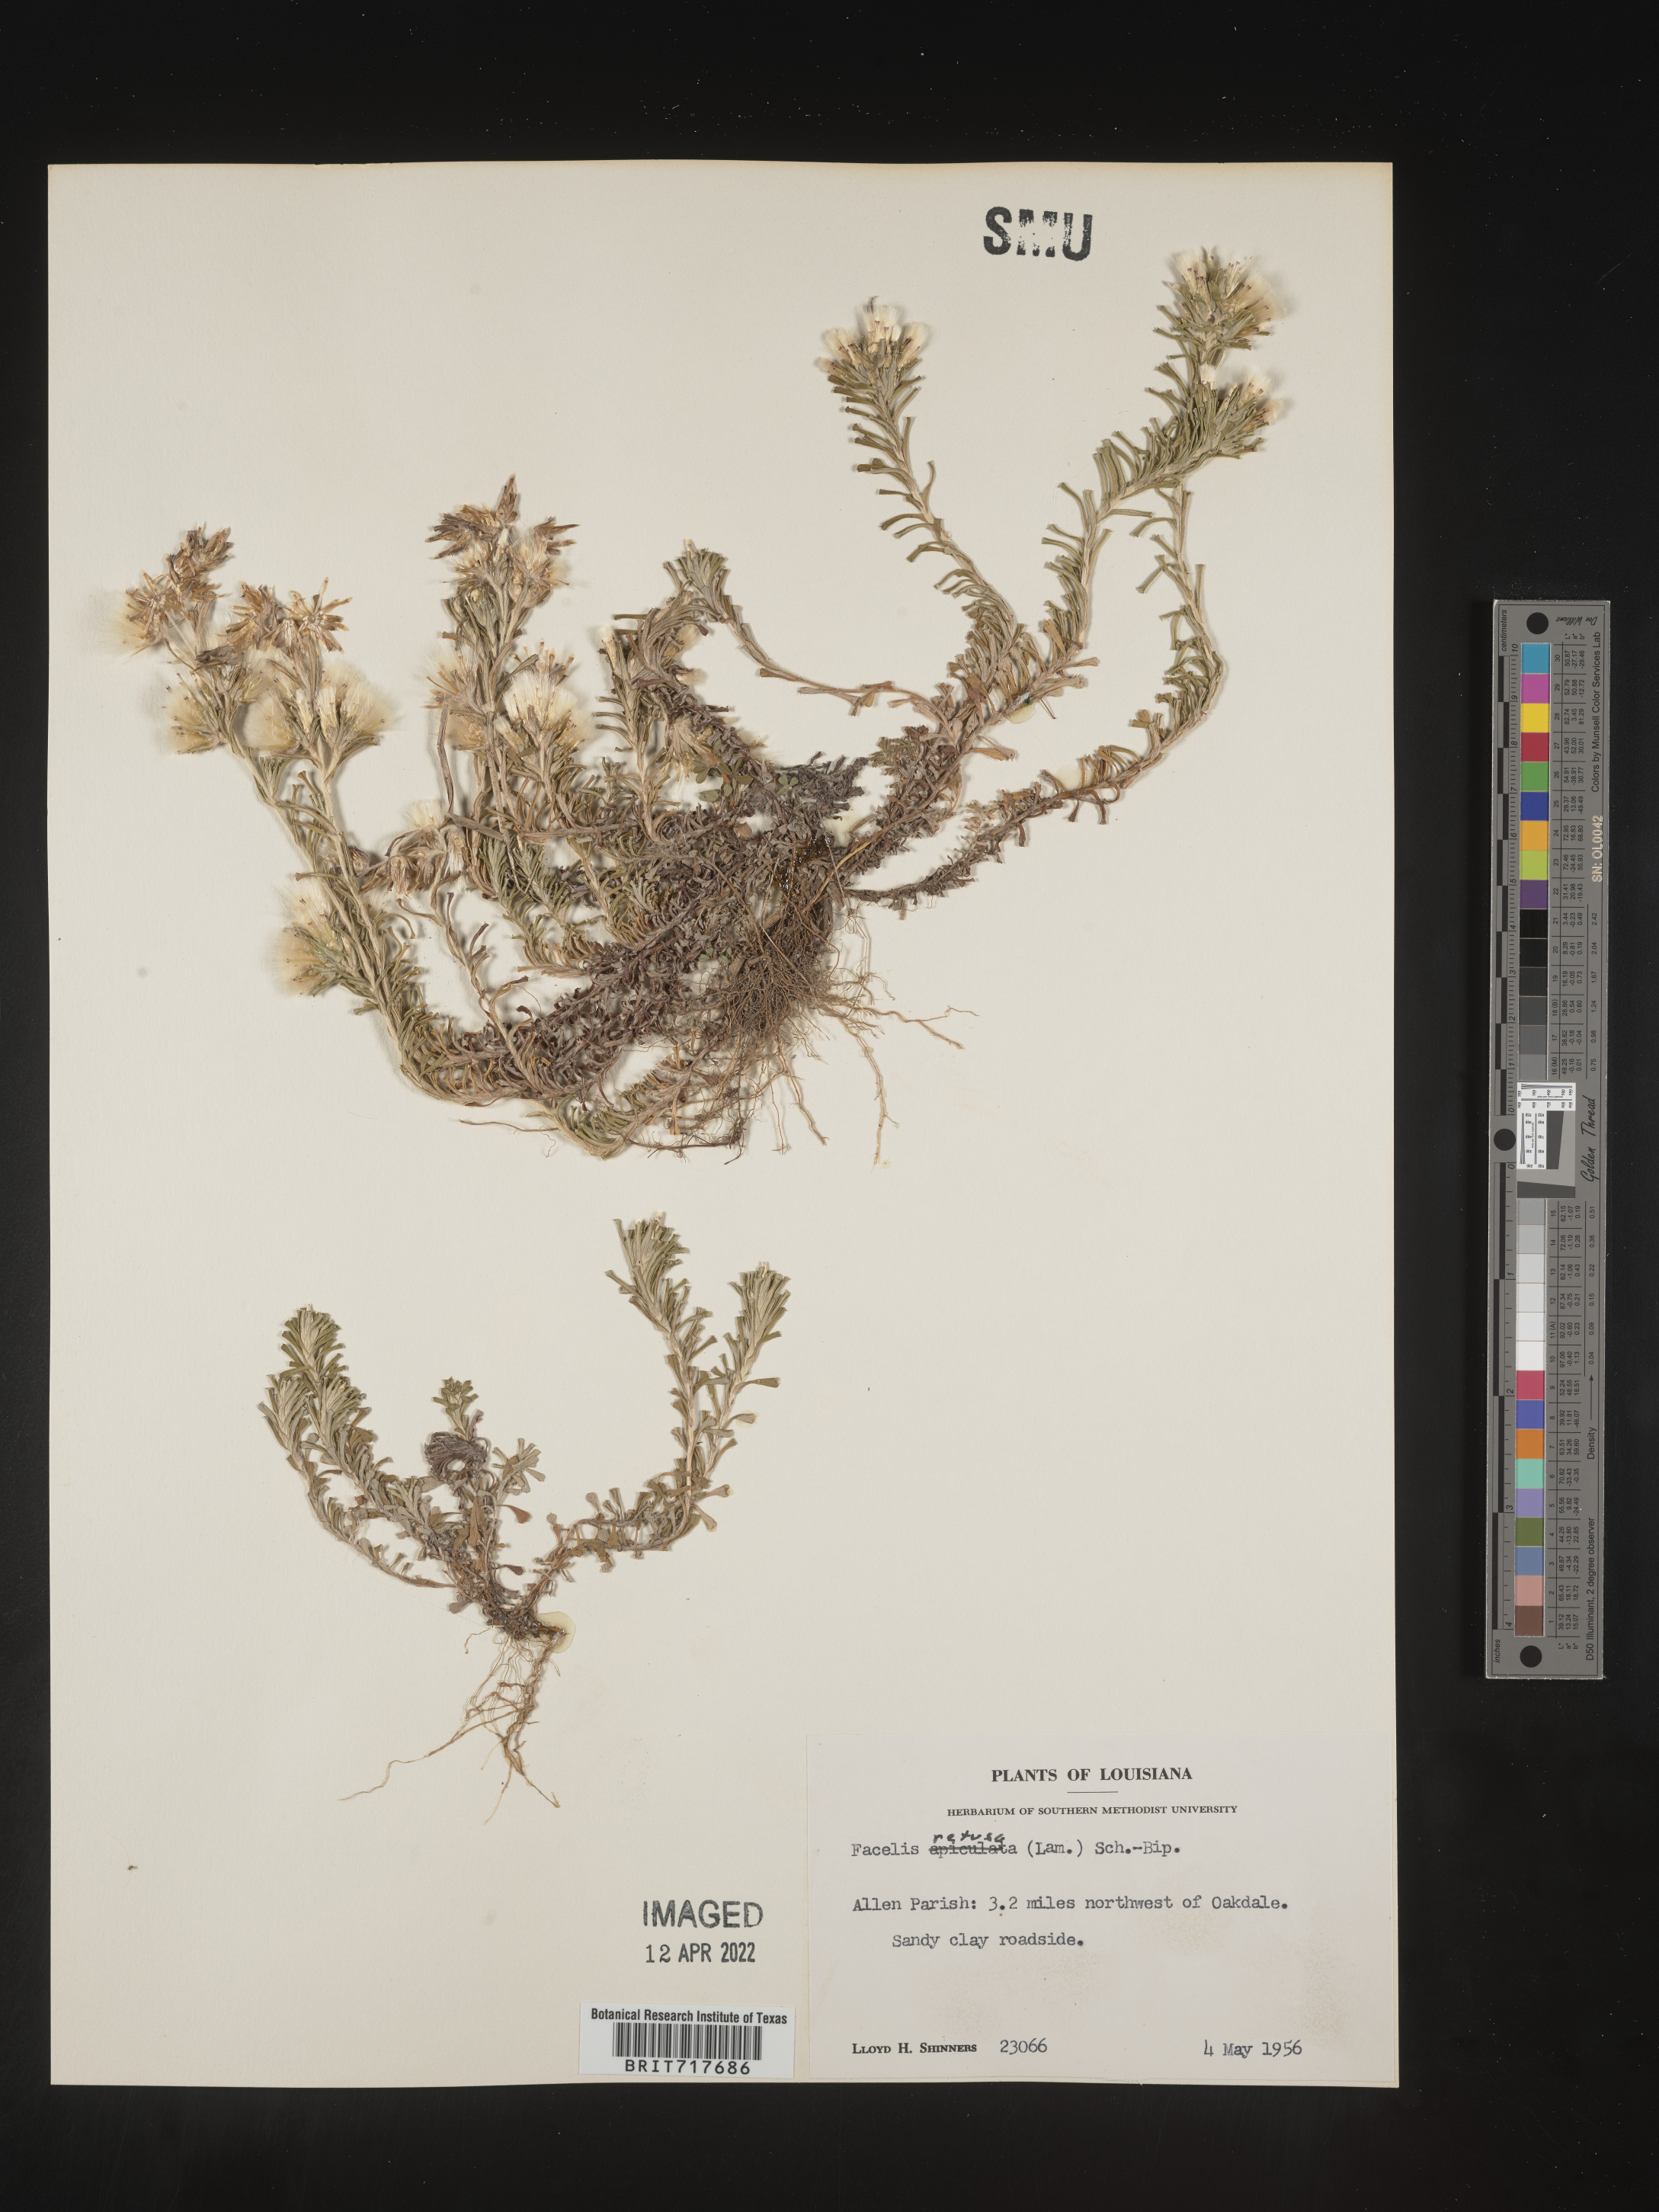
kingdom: Plantae
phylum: Tracheophyta
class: Magnoliopsida
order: Asterales
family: Asteraceae
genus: Facelis
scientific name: Facelis retusa
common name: Annual trampweed
